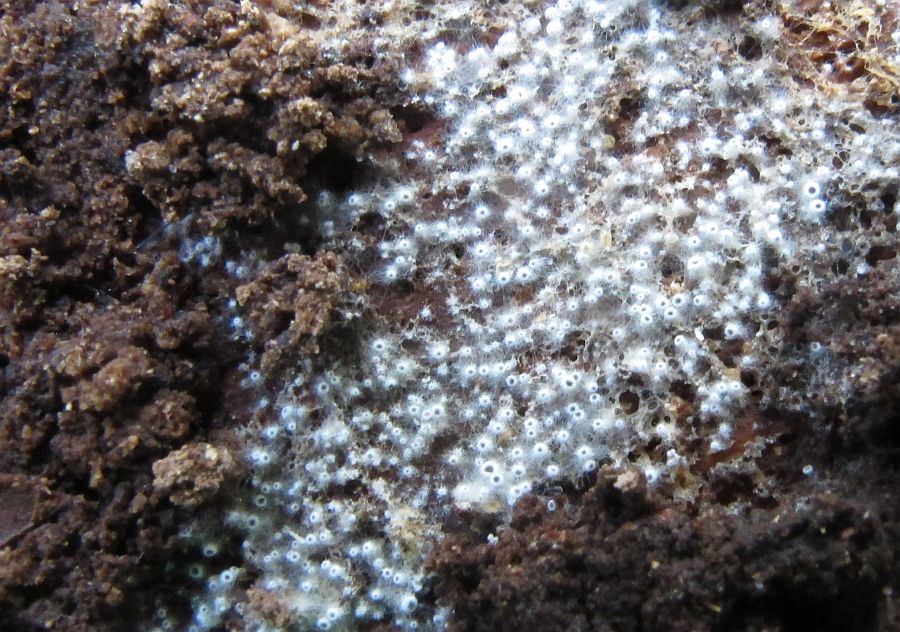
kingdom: Fungi
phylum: Ascomycota
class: Leotiomycetes
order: Helotiales
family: Arachnopezizaceae
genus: Eriopezia
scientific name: Eriopezia caesia
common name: ege-spindskive
